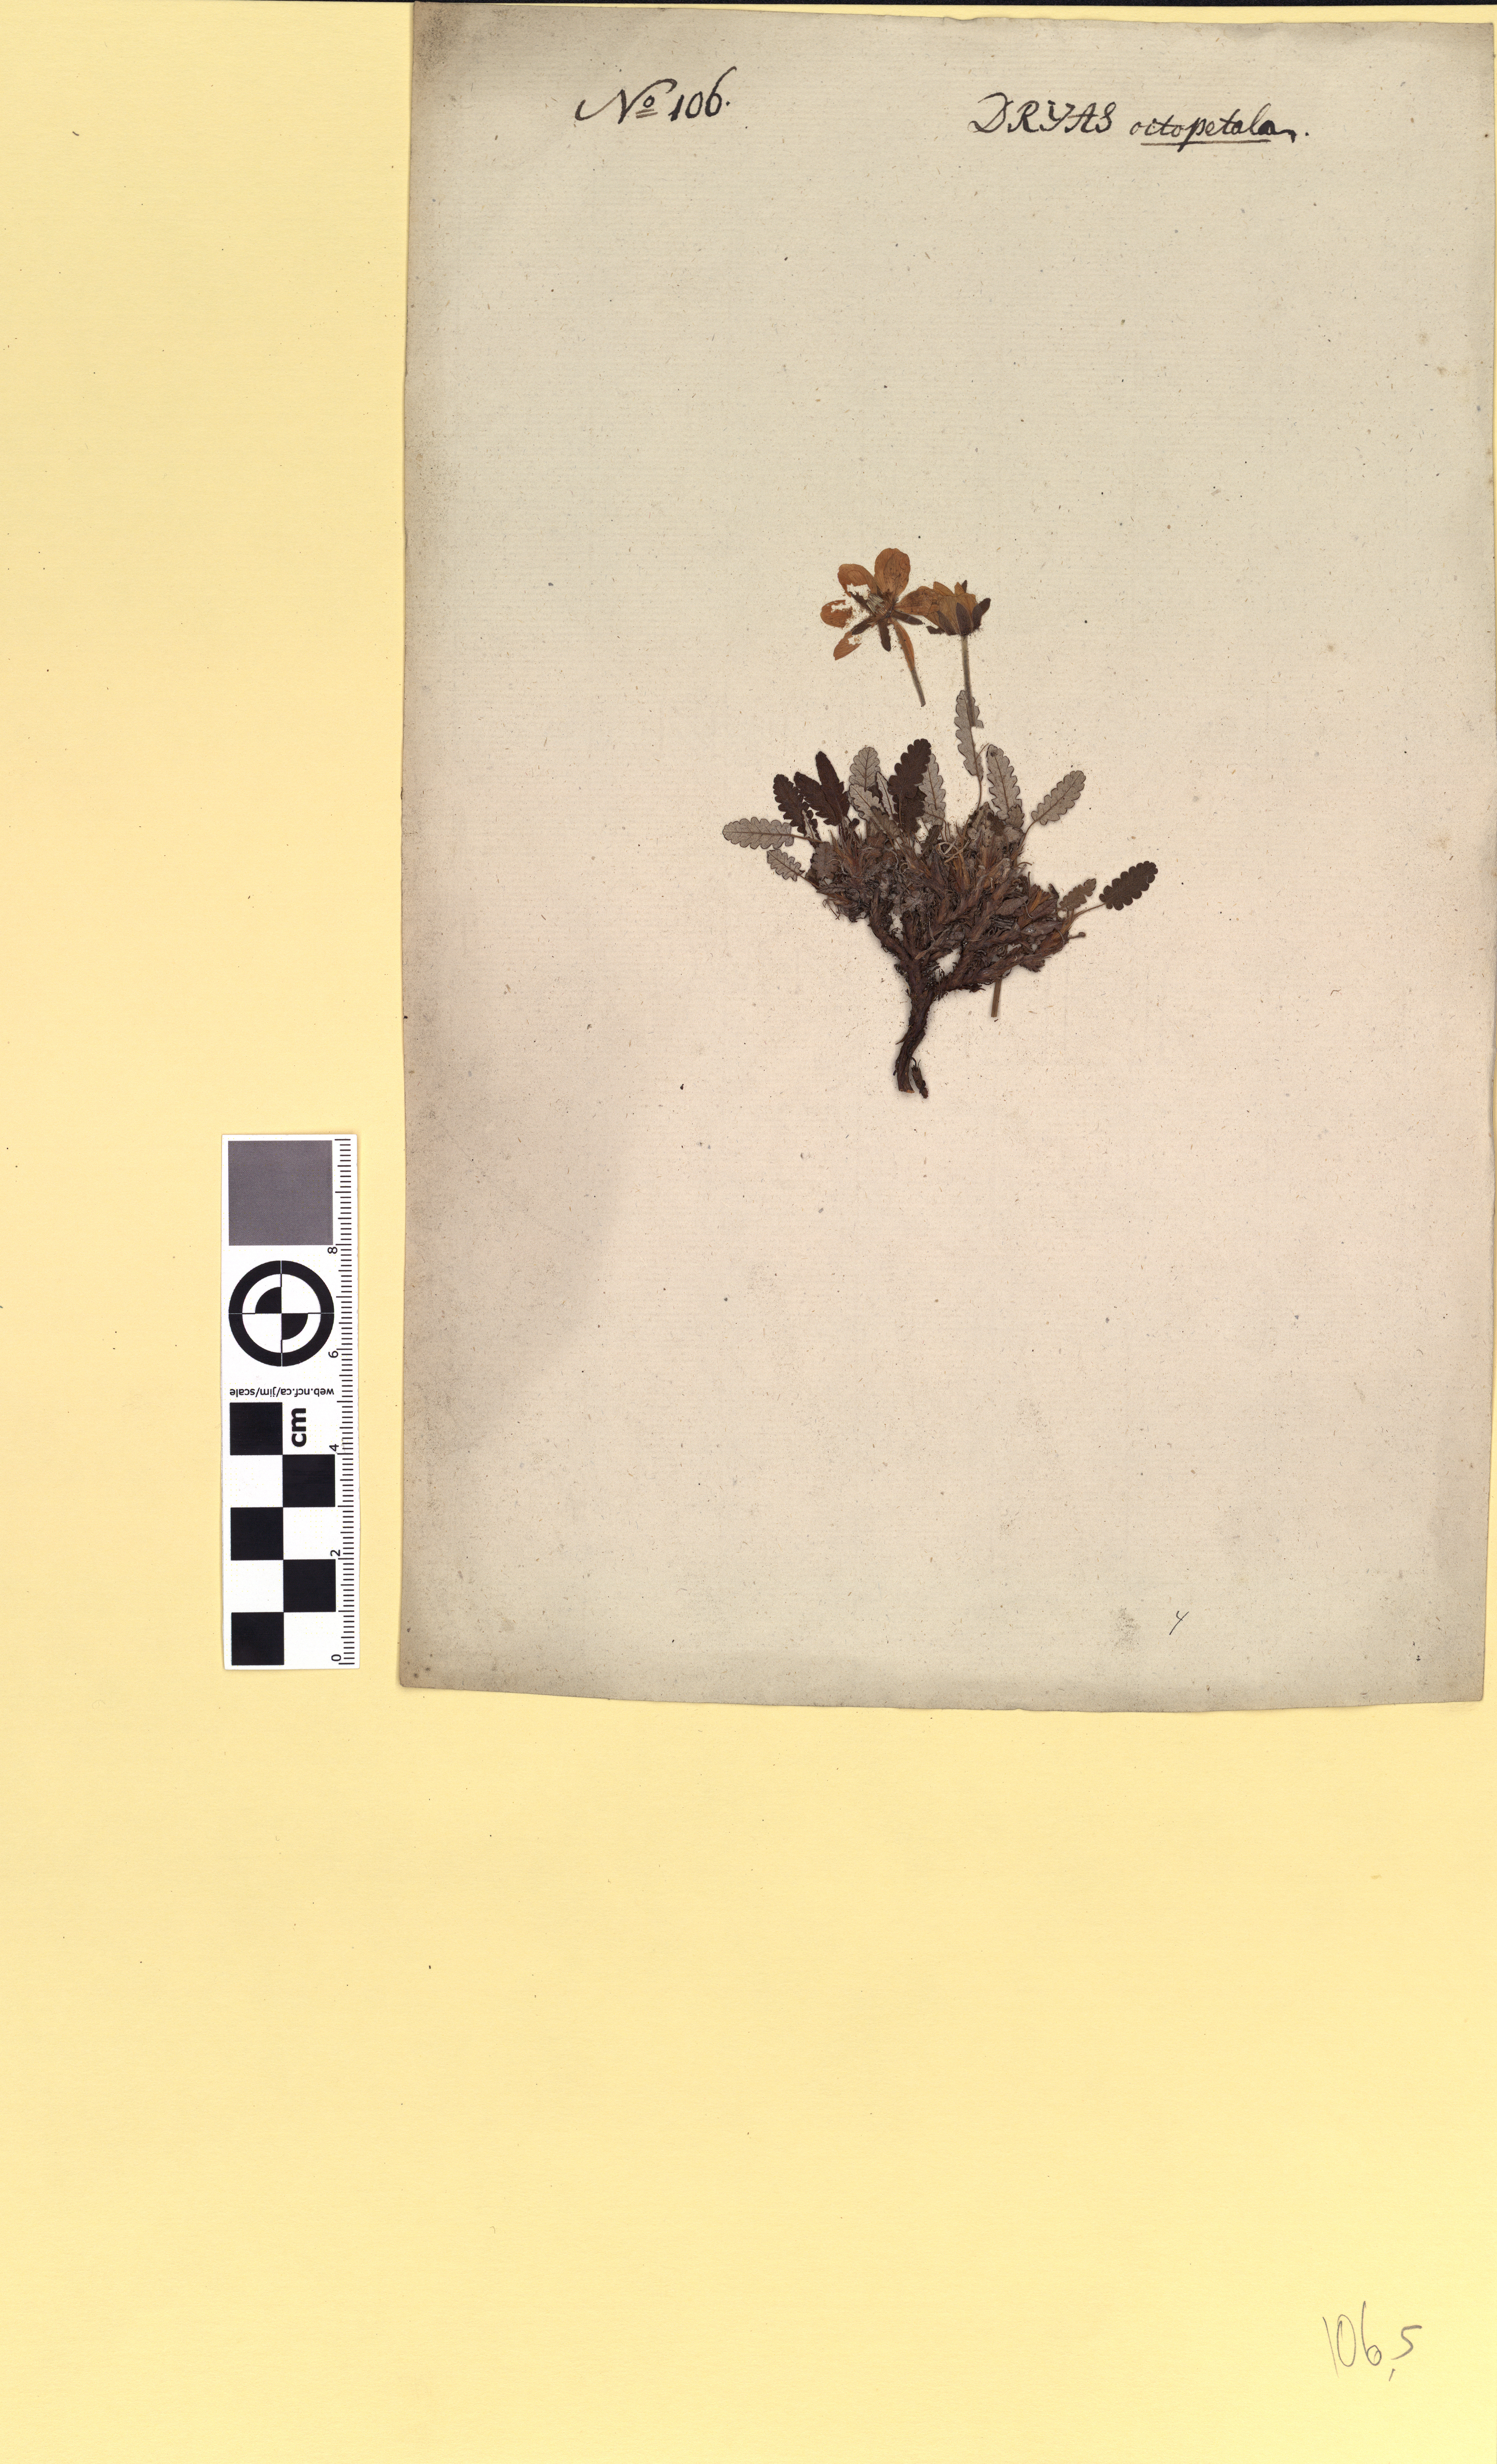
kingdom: Plantae
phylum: Tracheophyta
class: Magnoliopsida
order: Rosales
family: Rosaceae
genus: Dryas
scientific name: Dryas octopetala
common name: Eight-petal mountain-avens
